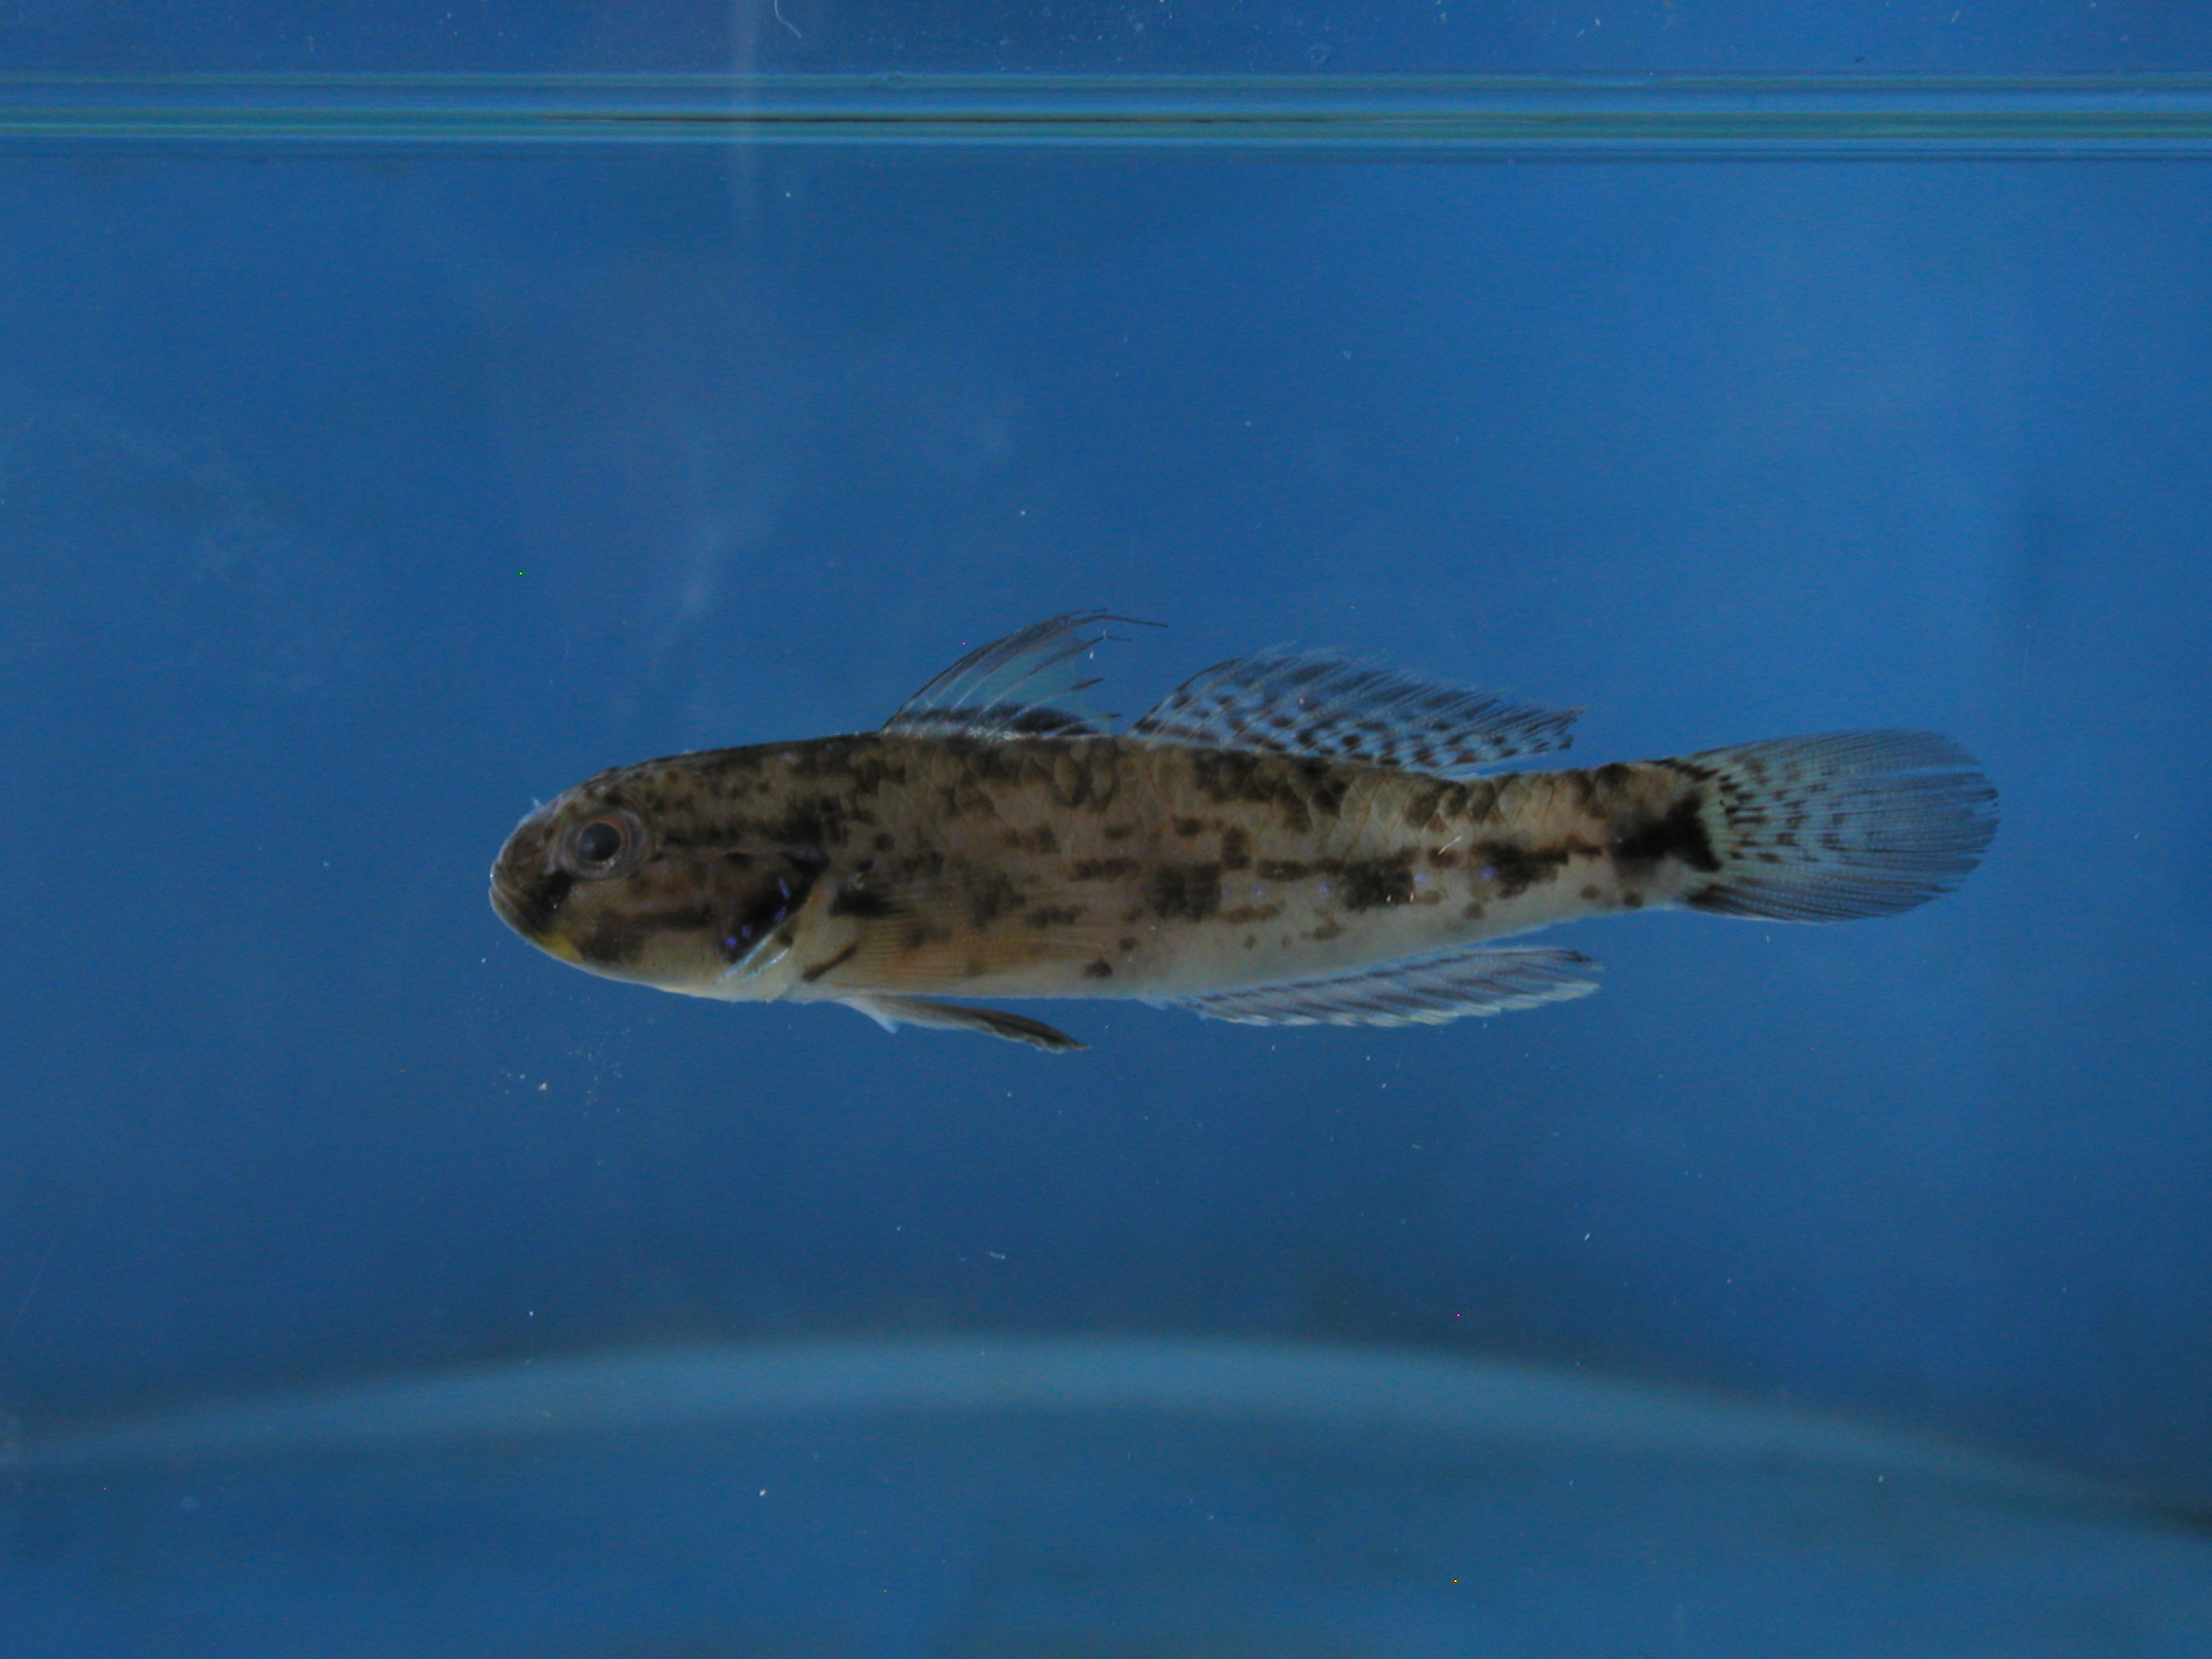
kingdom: Animalia
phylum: Chordata
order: Perciformes
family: Gobiidae
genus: Acentrogobius
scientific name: Acentrogobius audax
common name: Blue-spotted mud-goby
